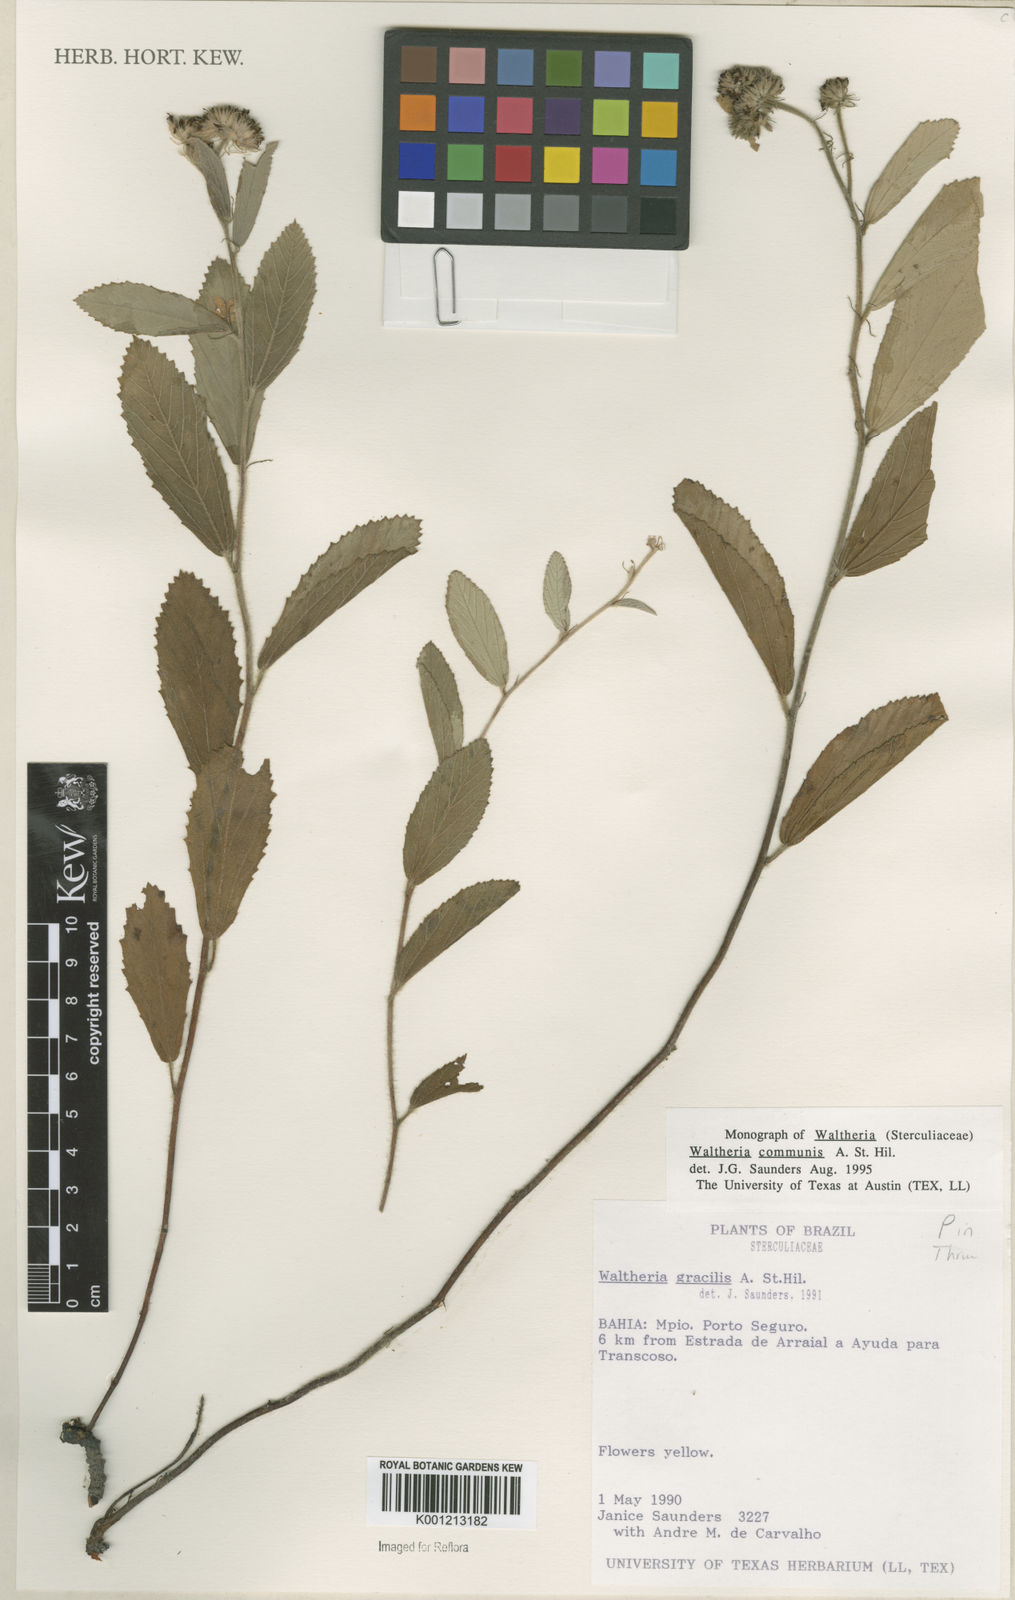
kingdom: Plantae
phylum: Tracheophyta
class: Magnoliopsida
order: Malvales
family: Malvaceae
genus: Waltheria
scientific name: Waltheria communis
